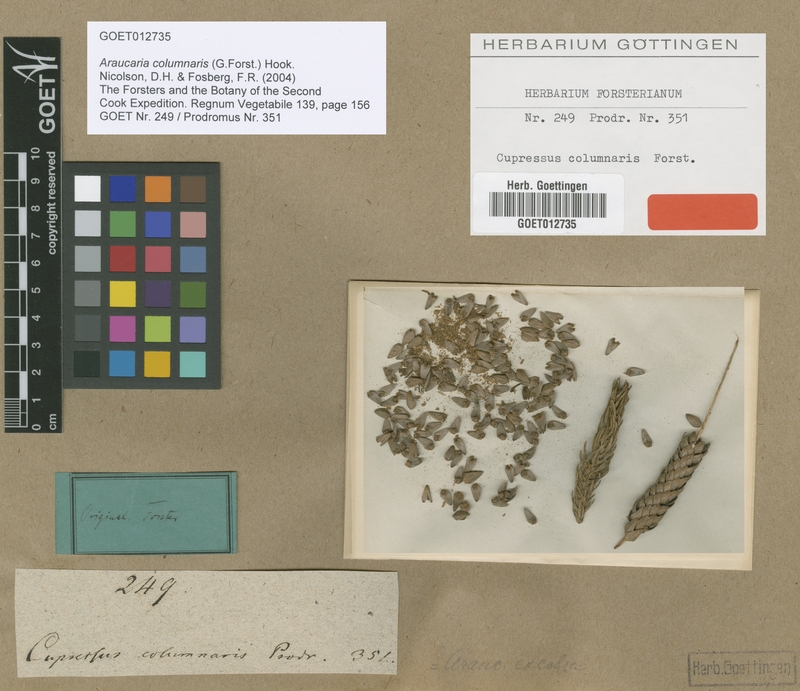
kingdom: Plantae
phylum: Tracheophyta
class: Pinopsida
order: Pinales
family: Araucariaceae
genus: Araucaria
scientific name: Araucaria columnaris
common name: Coral reef araucaria
